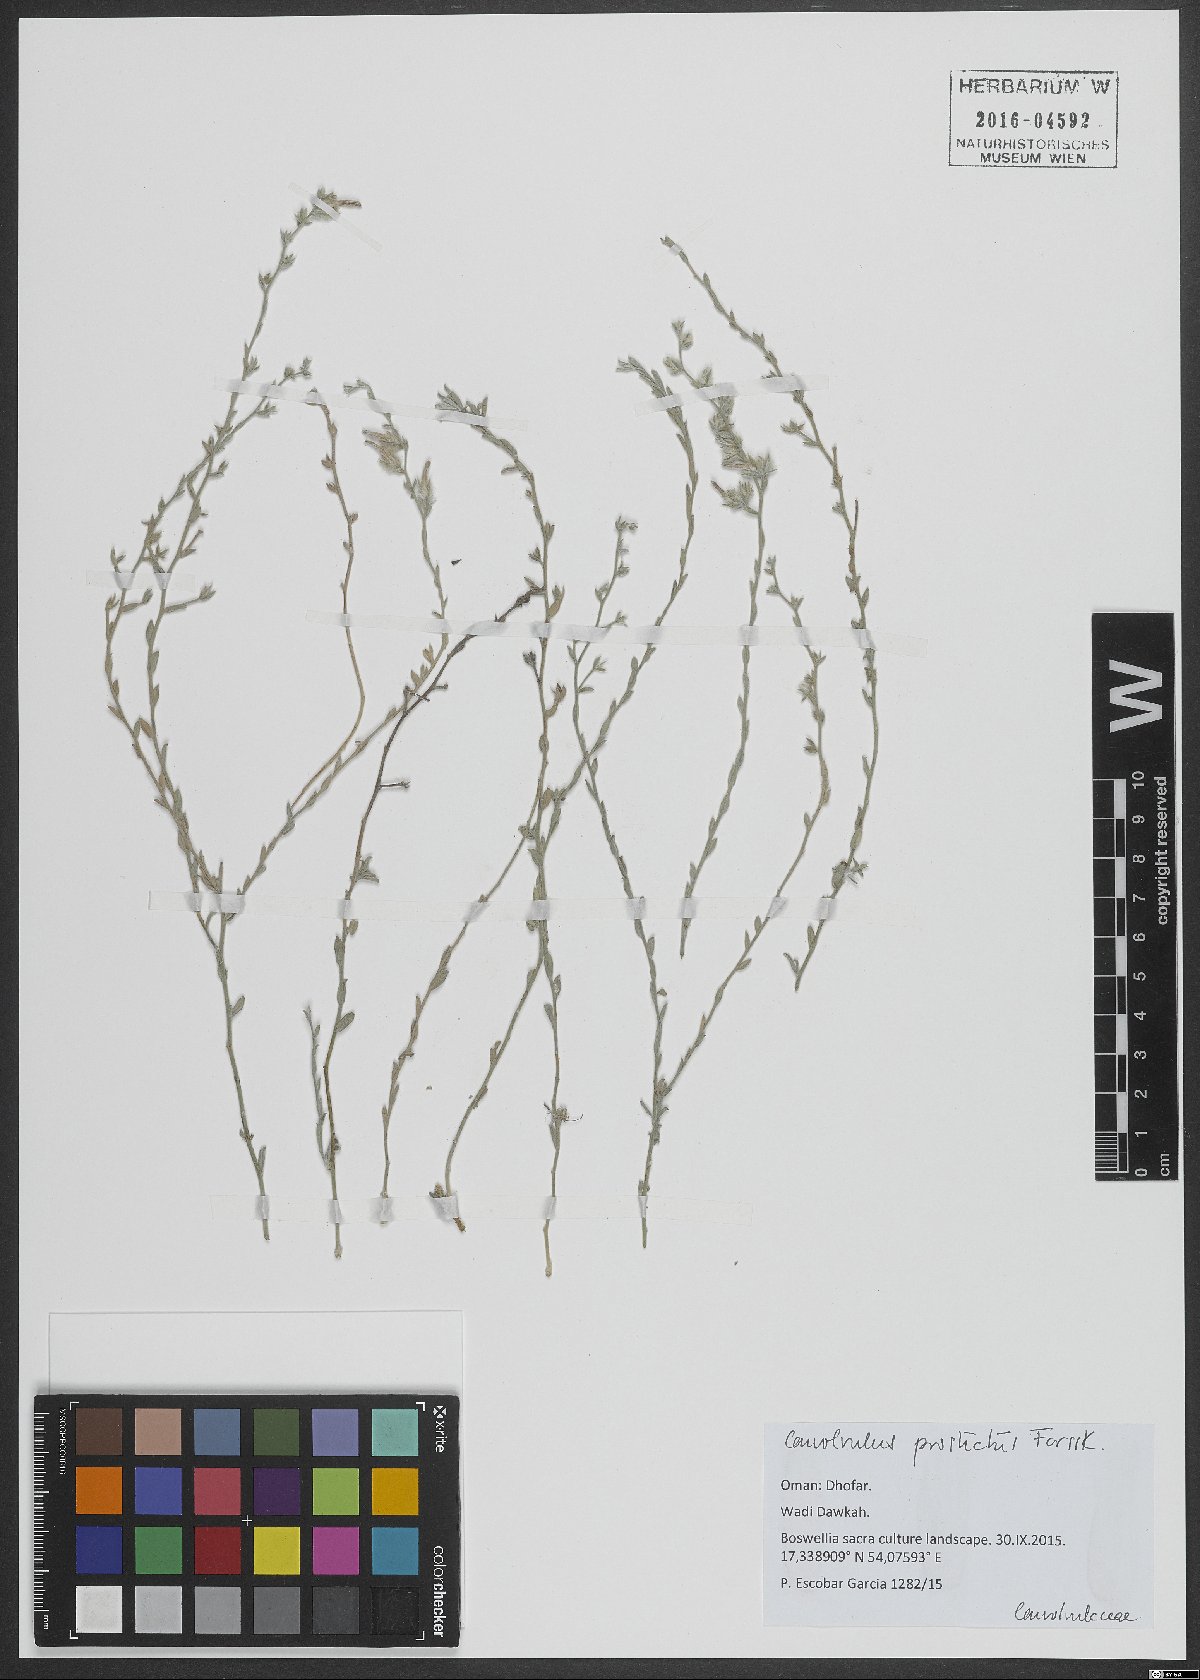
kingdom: Plantae
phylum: Tracheophyta
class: Magnoliopsida
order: Solanales
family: Convolvulaceae
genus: Convolvulus
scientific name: Convolvulus prostratus
